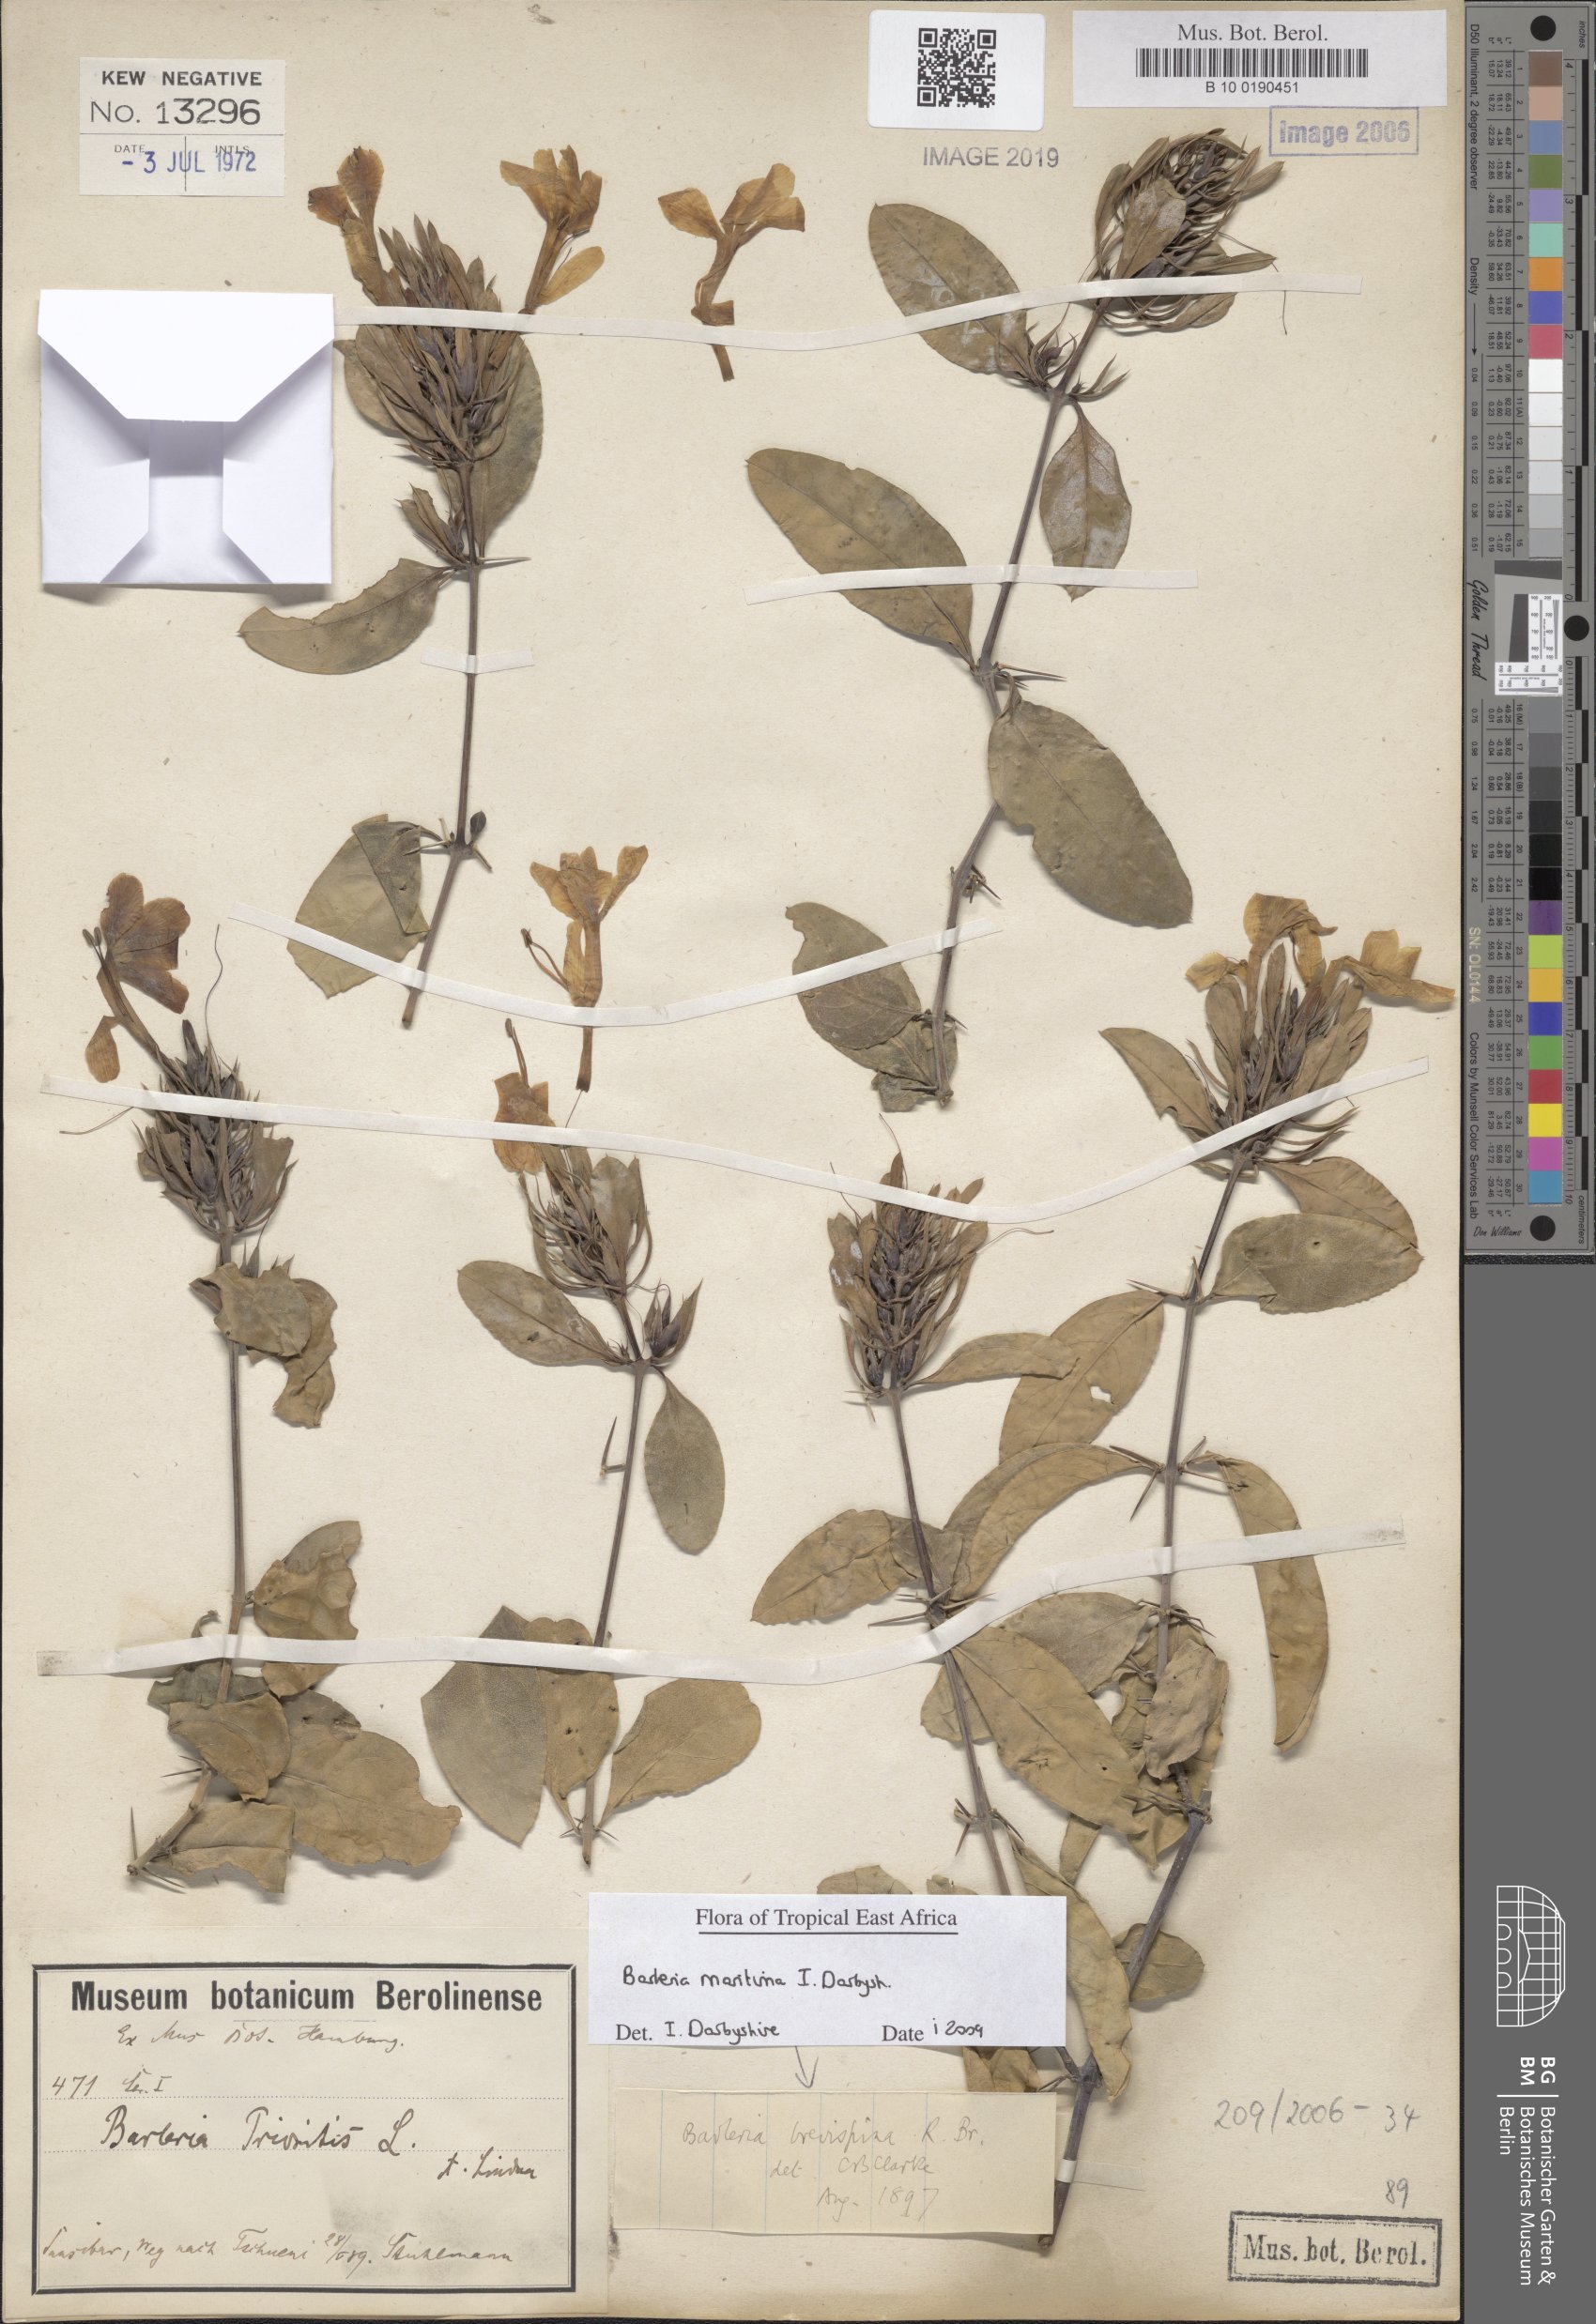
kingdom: Plantae
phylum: Tracheophyta
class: Magnoliopsida
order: Lamiales
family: Acanthaceae
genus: Barleria
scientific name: Barleria quadrispina
